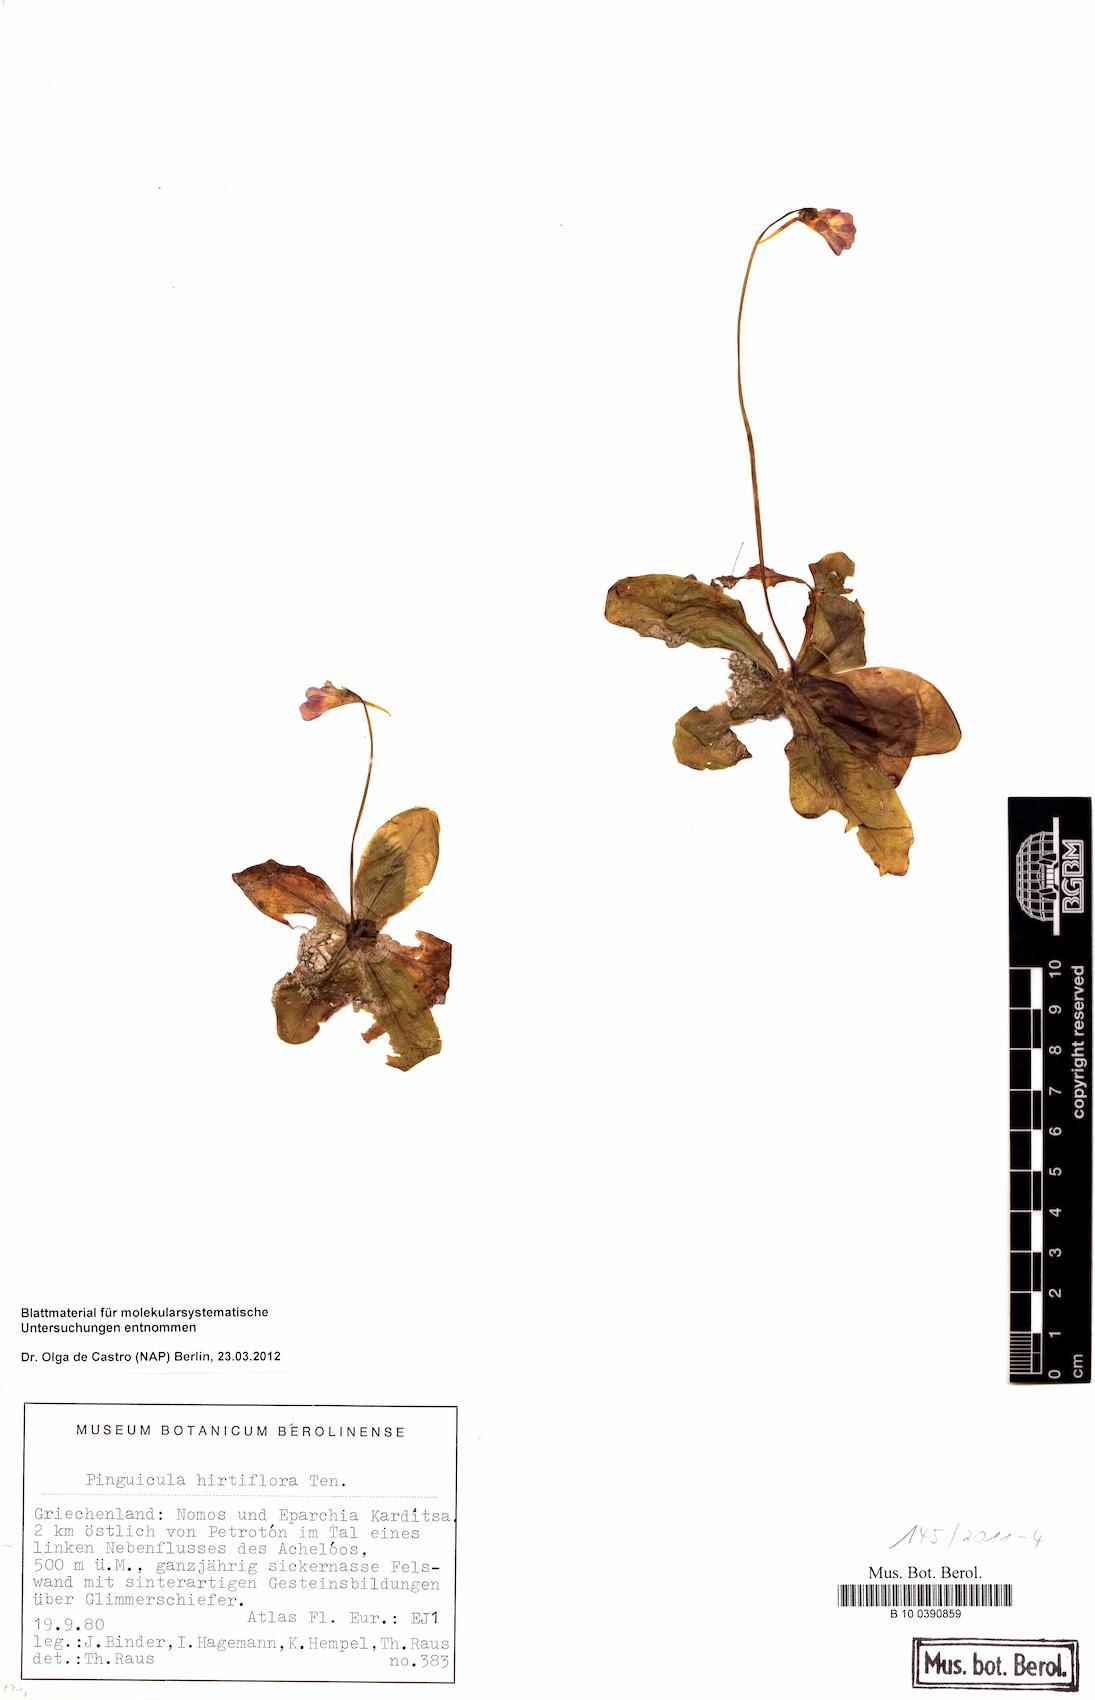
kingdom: Plantae
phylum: Tracheophyta
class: Magnoliopsida
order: Lamiales
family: Lentibulariaceae
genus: Pinguicula
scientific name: Pinguicula crystallina
